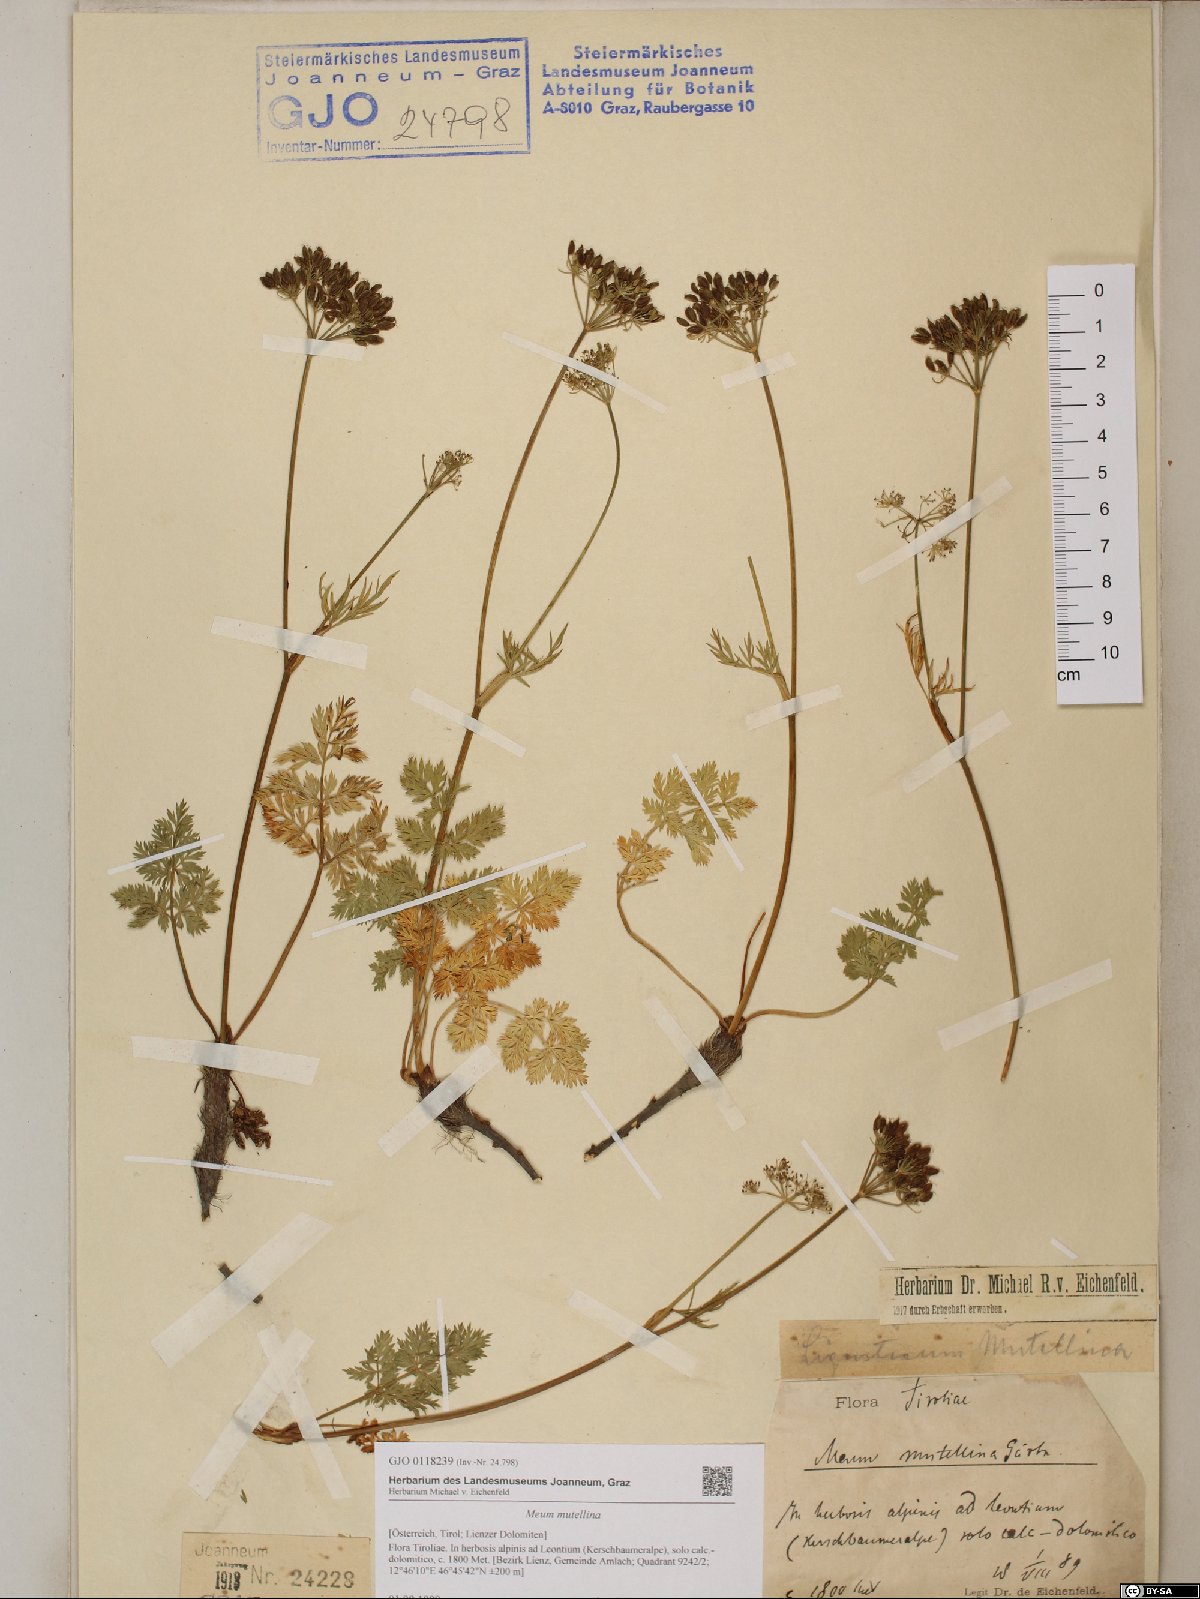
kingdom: Plantae
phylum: Tracheophyta
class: Magnoliopsida
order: Apiales
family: Apiaceae
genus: Mutellina
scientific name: Mutellina adonidifolia
